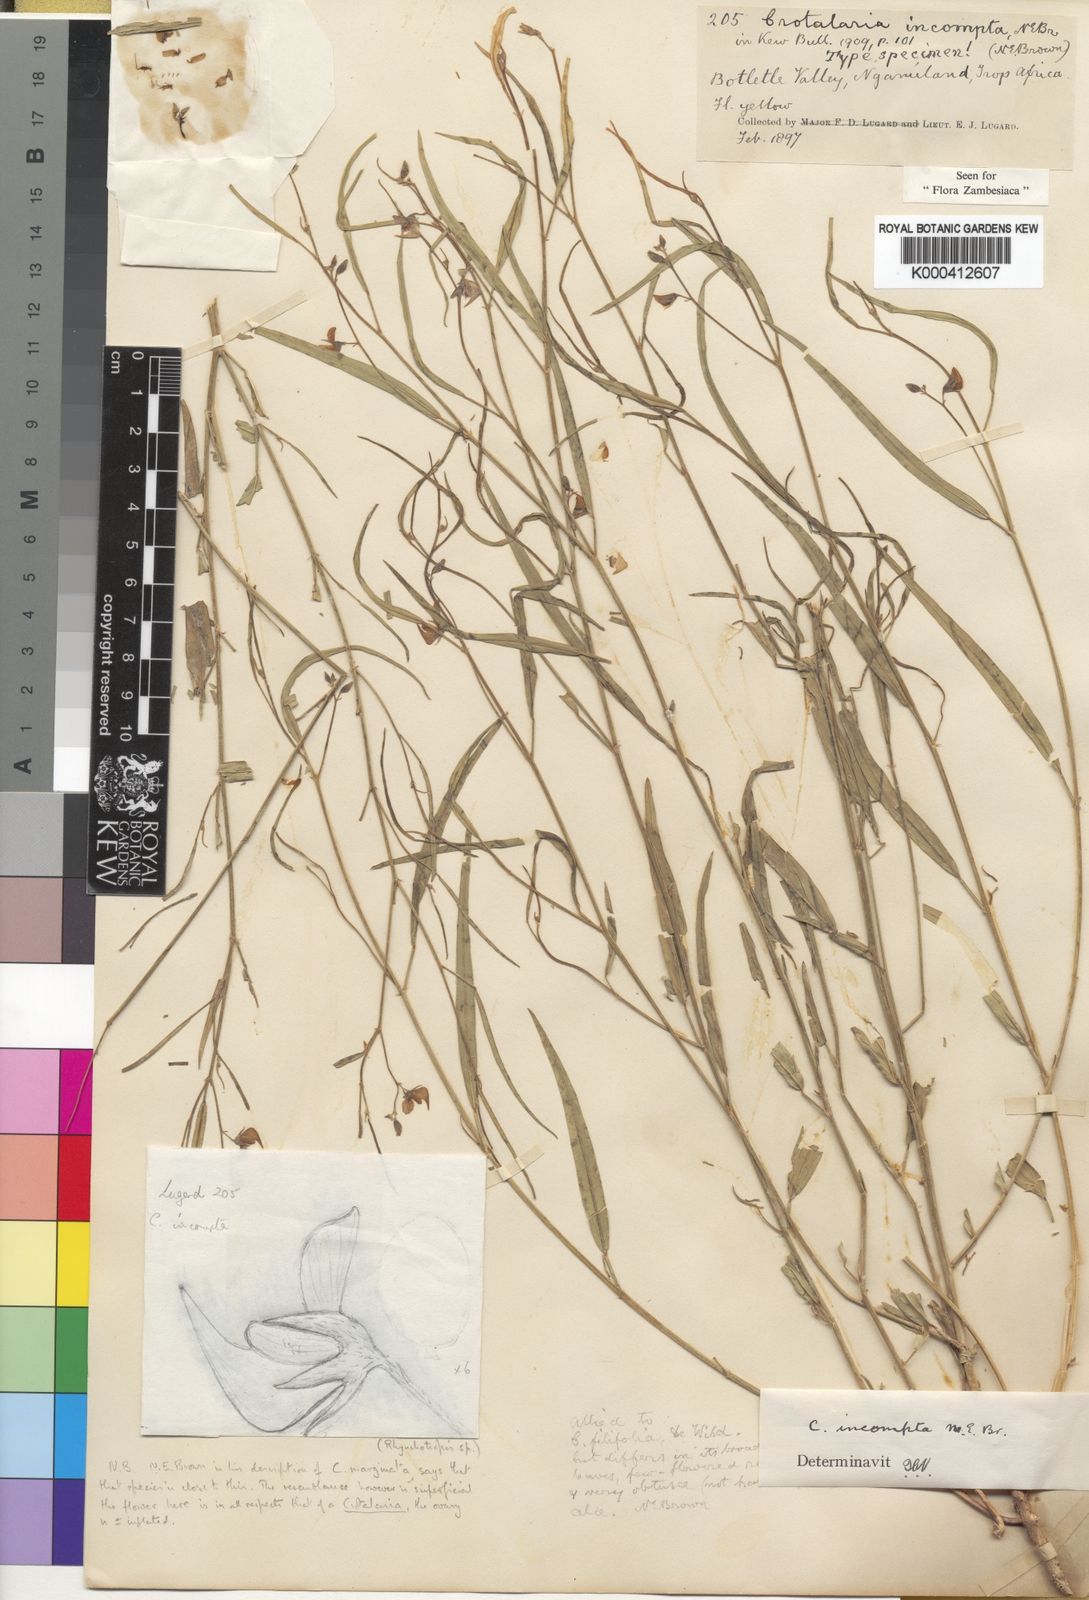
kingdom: Plantae
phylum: Tracheophyta
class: Magnoliopsida
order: Fabales
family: Fabaceae
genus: Crotalaria
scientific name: Crotalaria incompta
